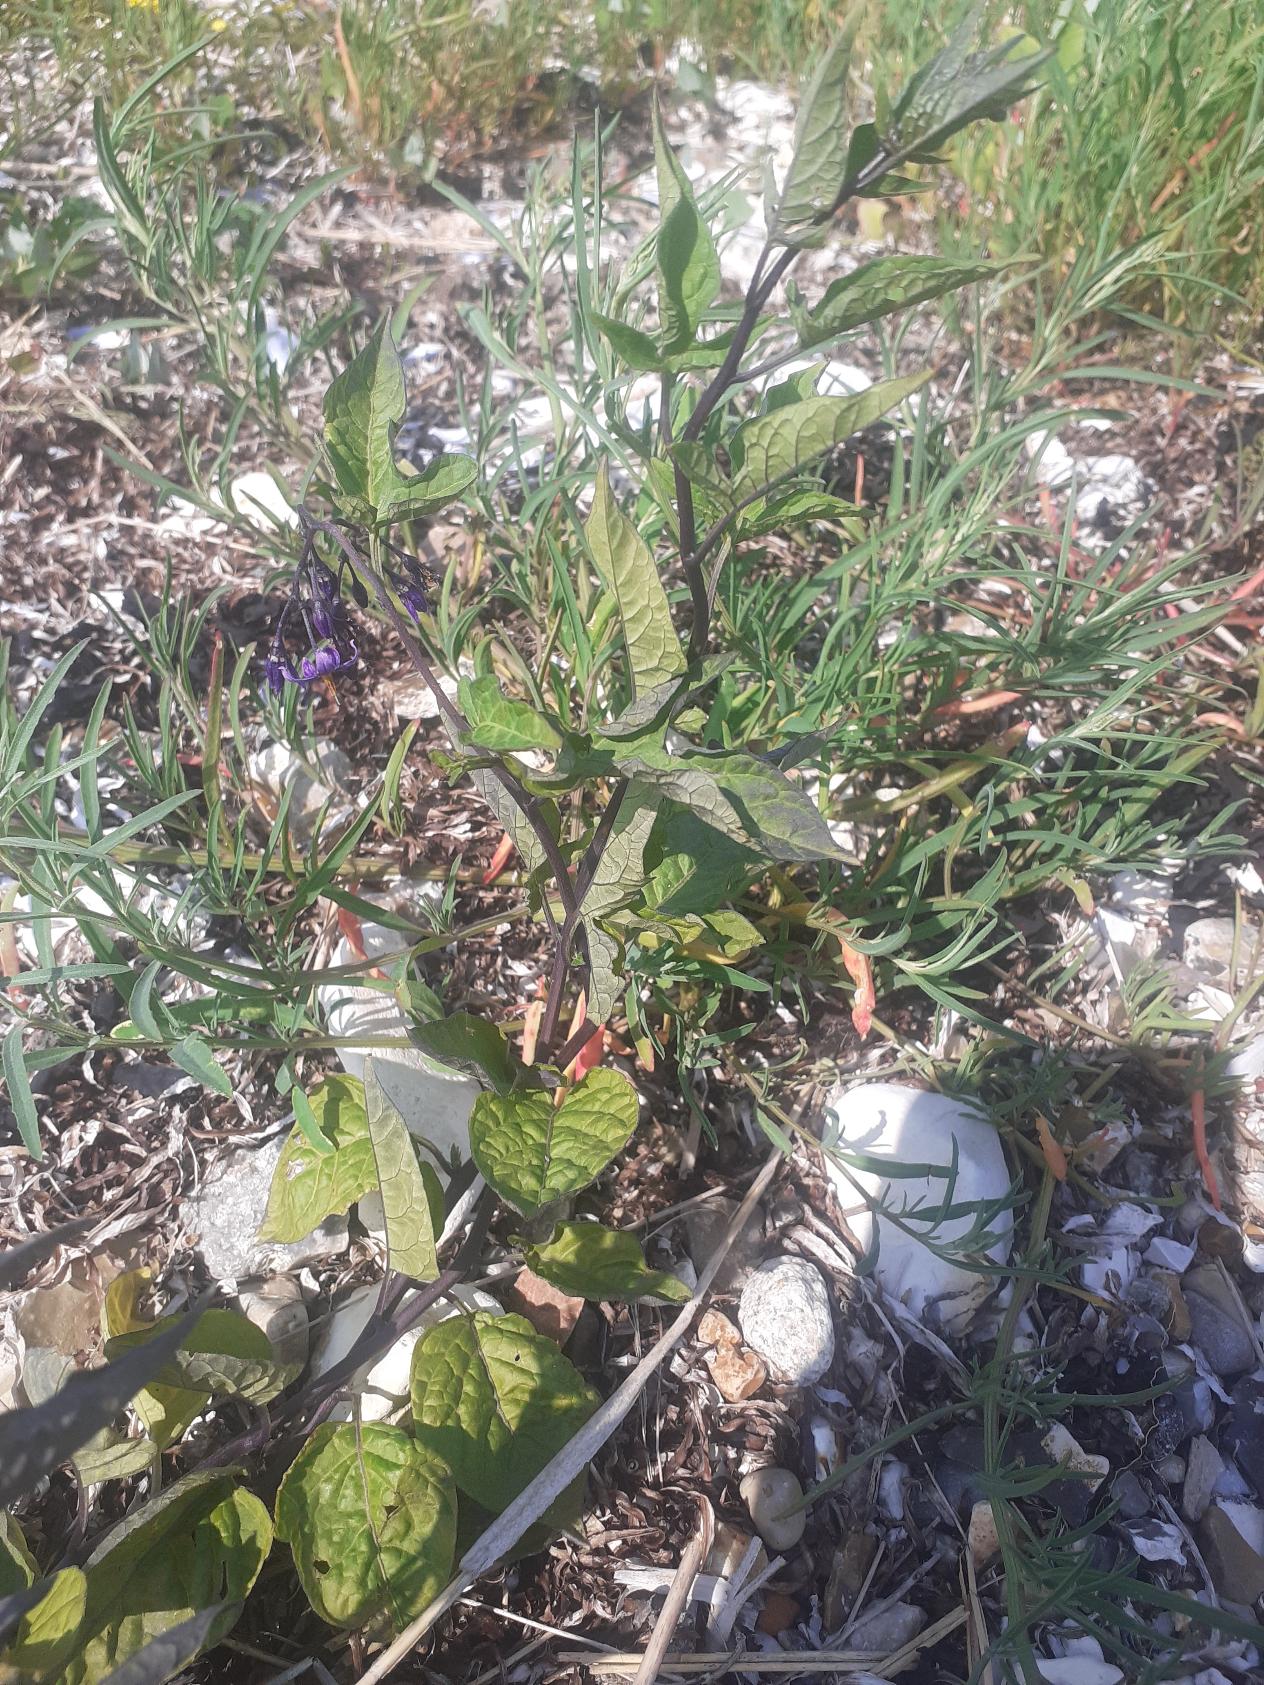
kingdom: Plantae
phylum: Tracheophyta
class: Magnoliopsida
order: Solanales
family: Solanaceae
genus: Solanum
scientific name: Solanum dulcamara
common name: Bittersød natskygge
